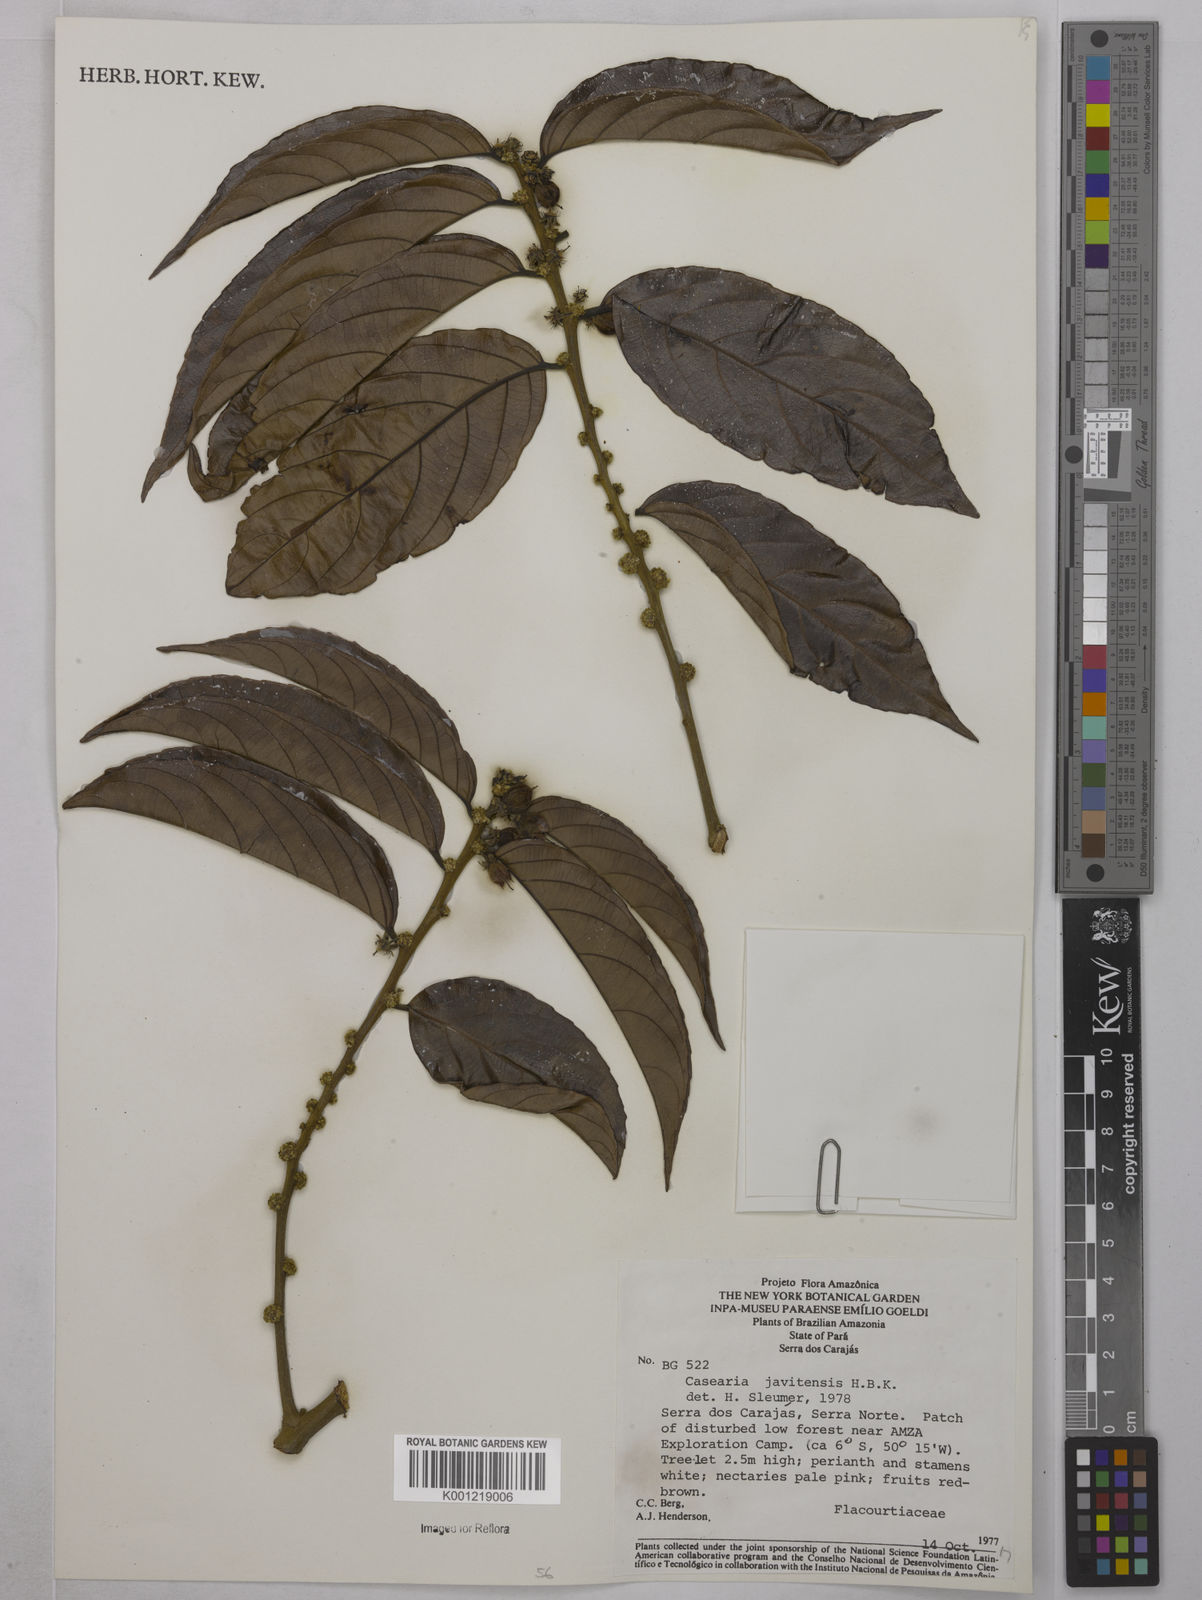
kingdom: Plantae
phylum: Tracheophyta
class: Magnoliopsida
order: Malpighiales
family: Salicaceae
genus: Piparea
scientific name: Piparea multiflora
